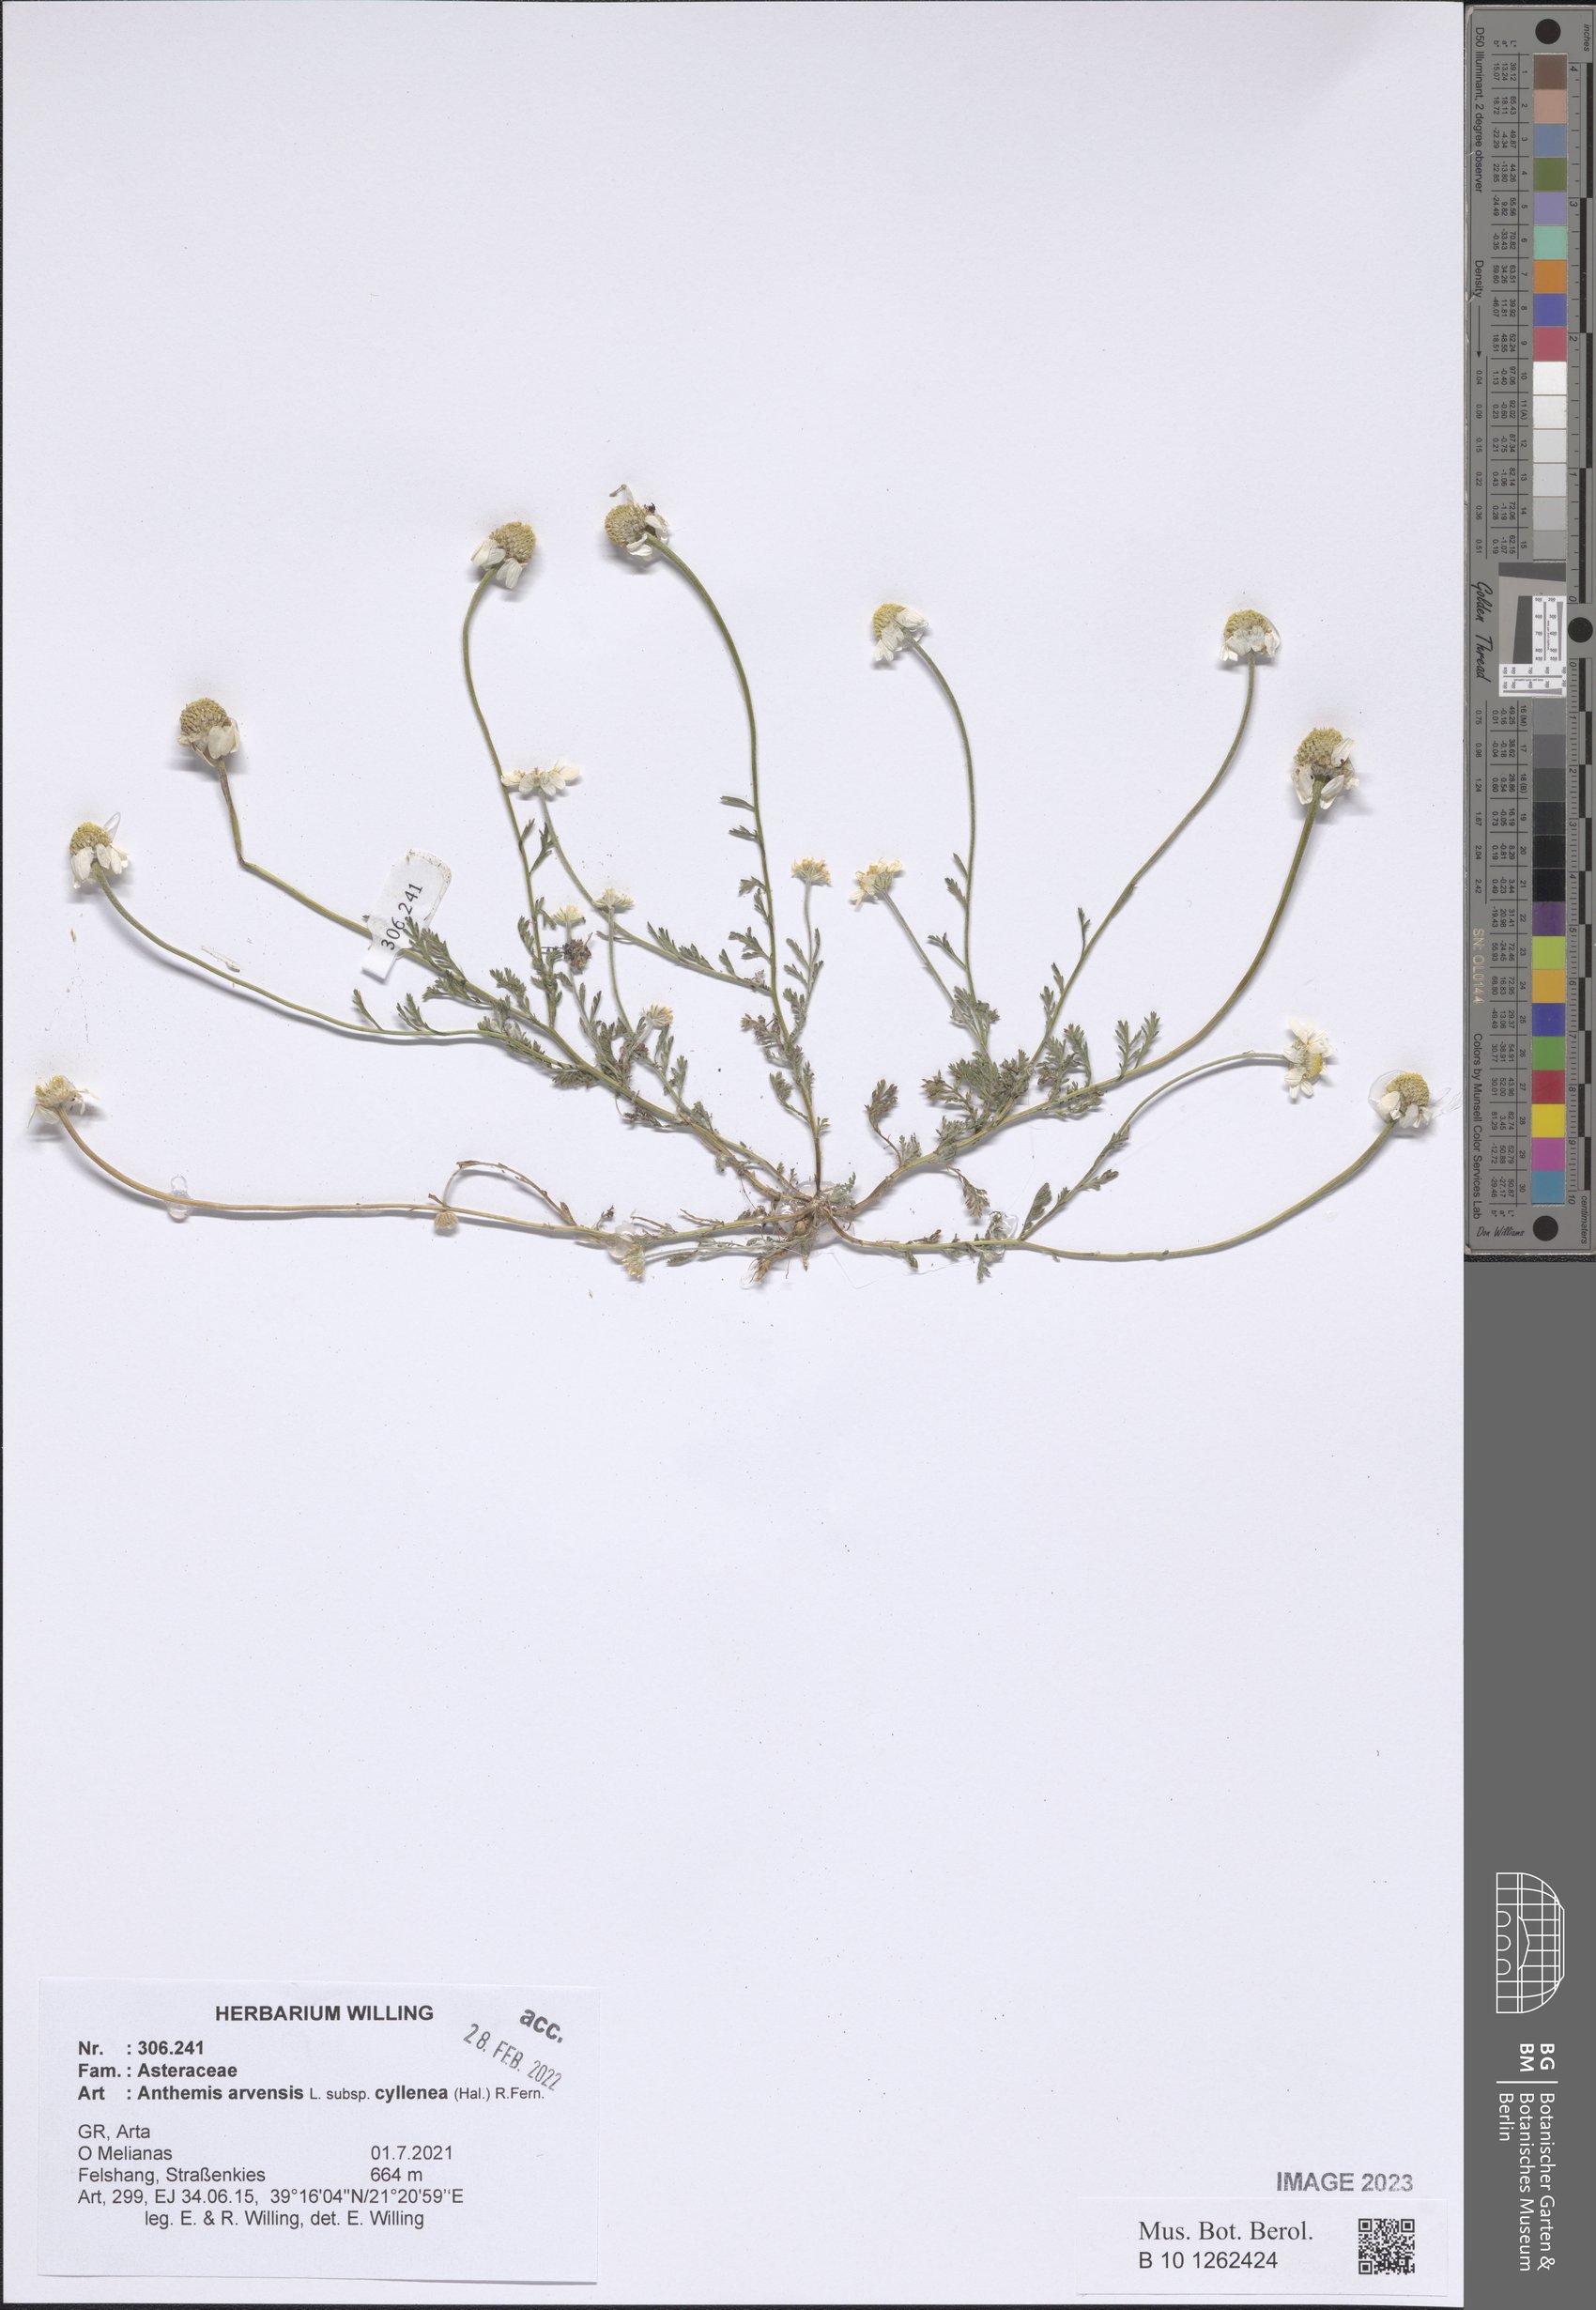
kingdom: Plantae
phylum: Tracheophyta
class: Magnoliopsida
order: Asterales
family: Asteraceae
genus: Anthemis
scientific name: Anthemis arvensis
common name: Corn chamomile
